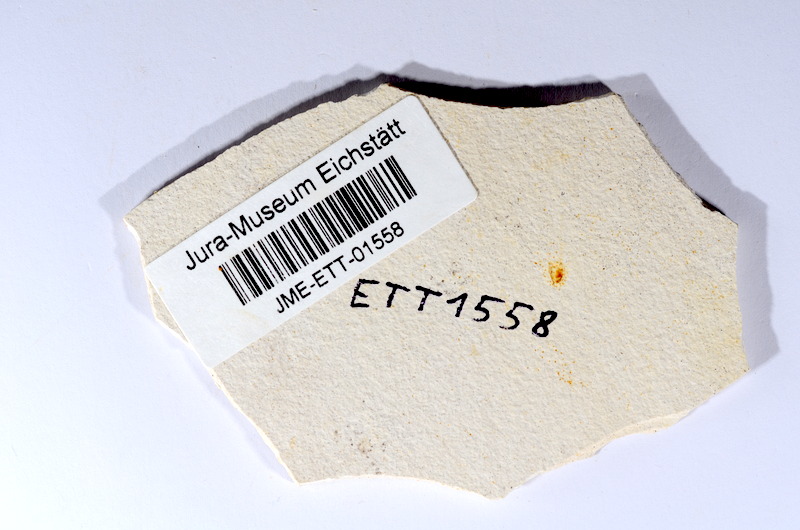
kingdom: Animalia
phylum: Chordata
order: Salmoniformes
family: Orthogonikleithridae
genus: Orthogonikleithrus
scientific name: Orthogonikleithrus hoelli
